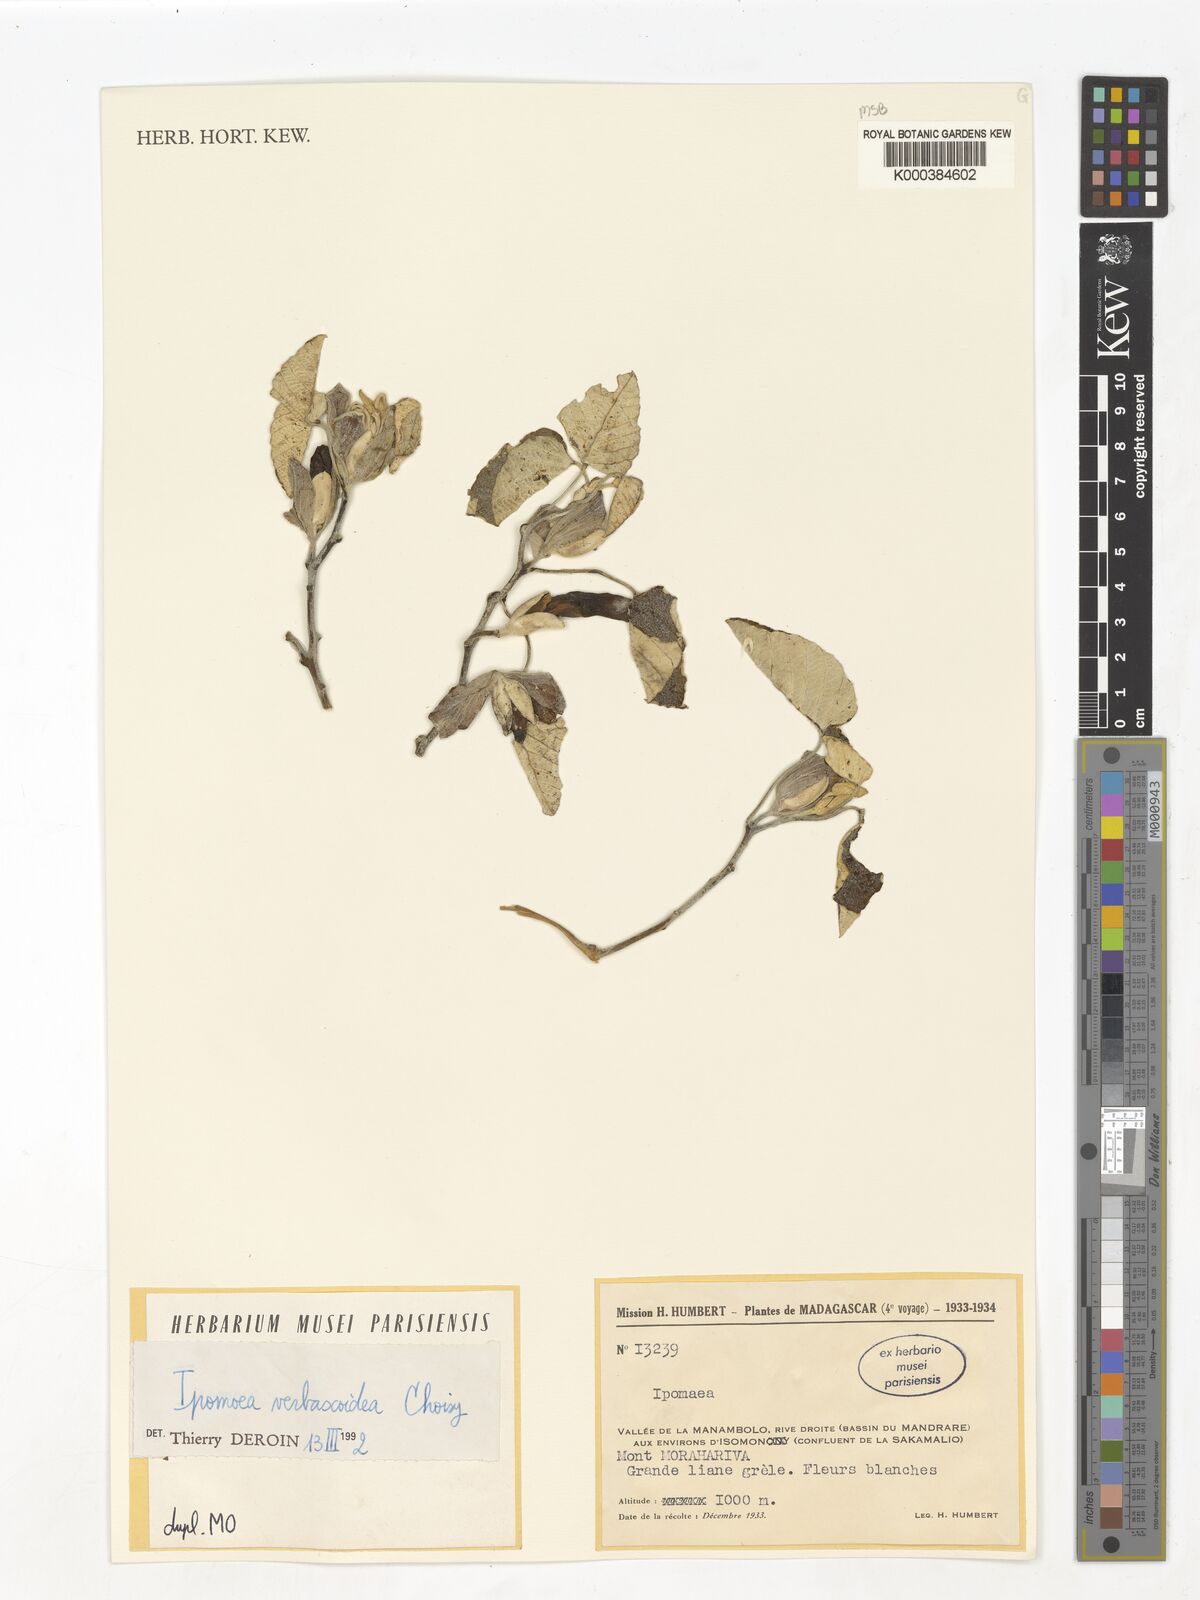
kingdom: Plantae
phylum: Tracheophyta
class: Magnoliopsida
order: Solanales
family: Convolvulaceae
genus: Ipomoea
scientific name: Ipomoea verbascoidea
